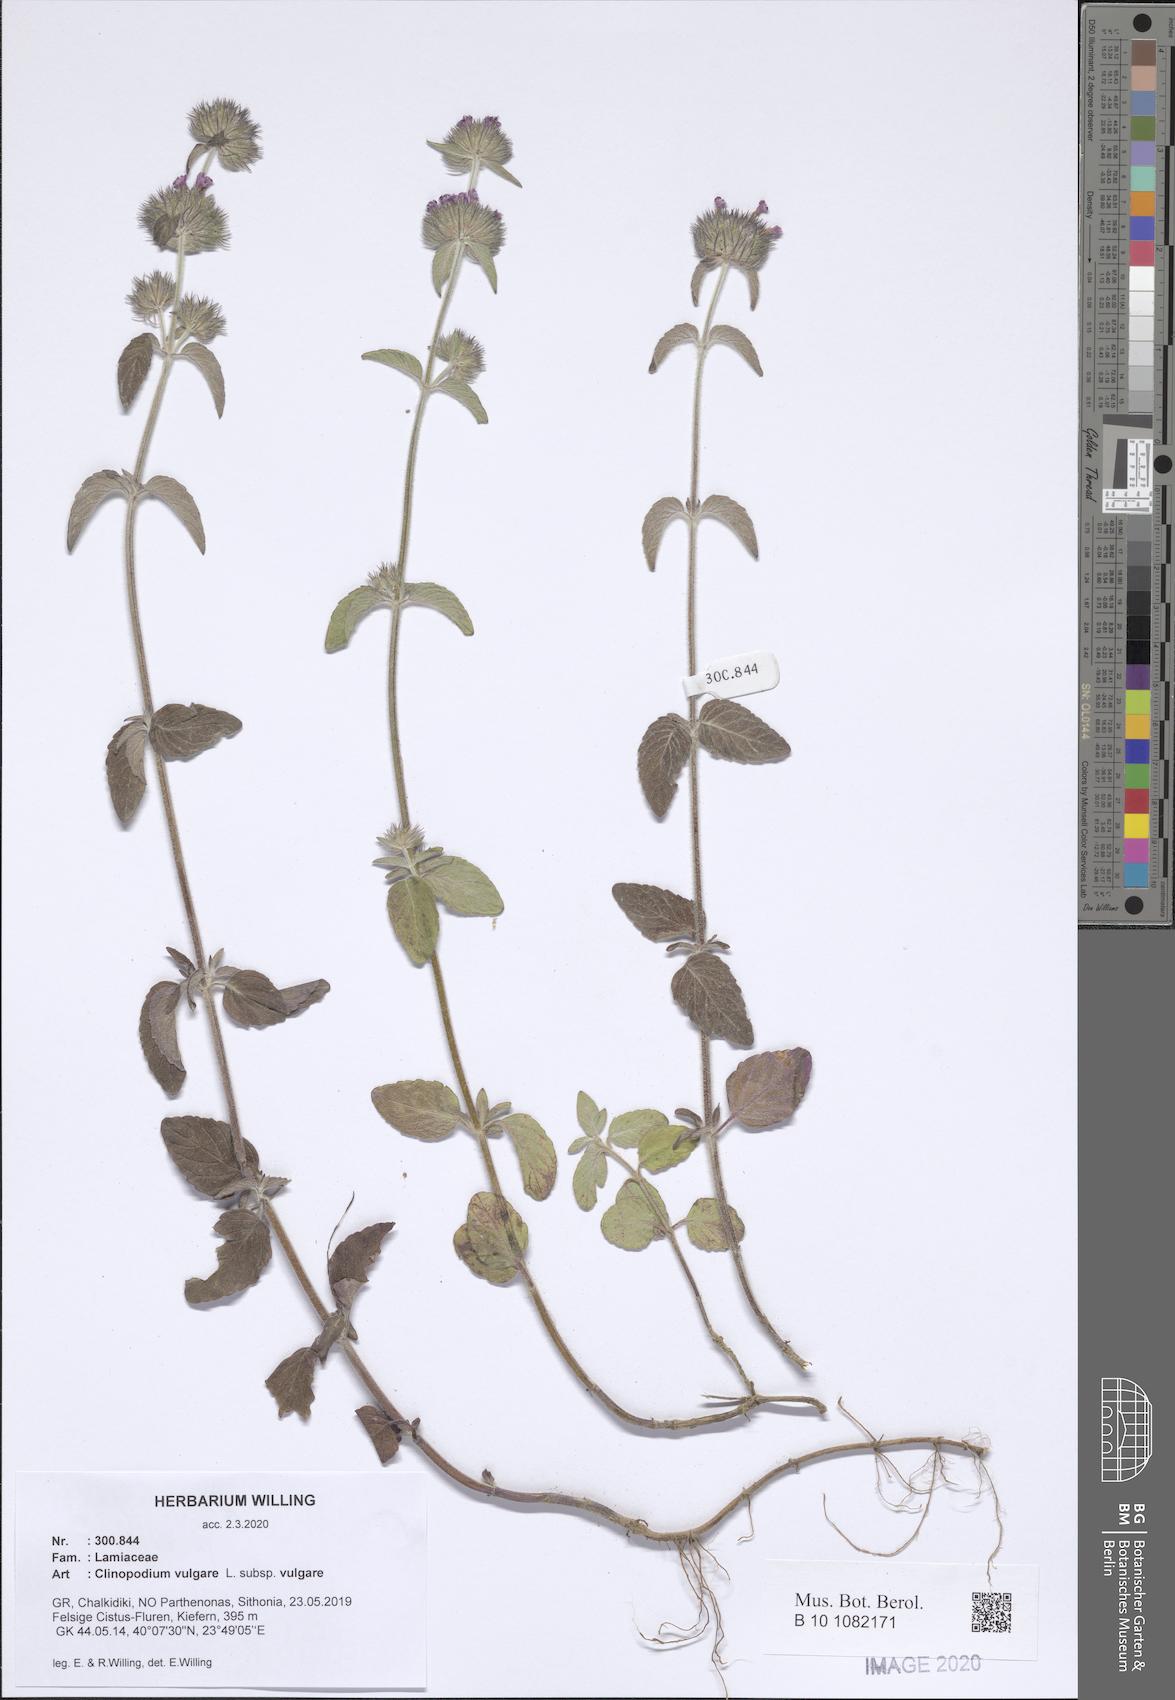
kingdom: Plantae
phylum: Tracheophyta
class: Magnoliopsida
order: Lamiales
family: Lamiaceae
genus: Clinopodium
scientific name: Clinopodium vulgare
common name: Wild basil
